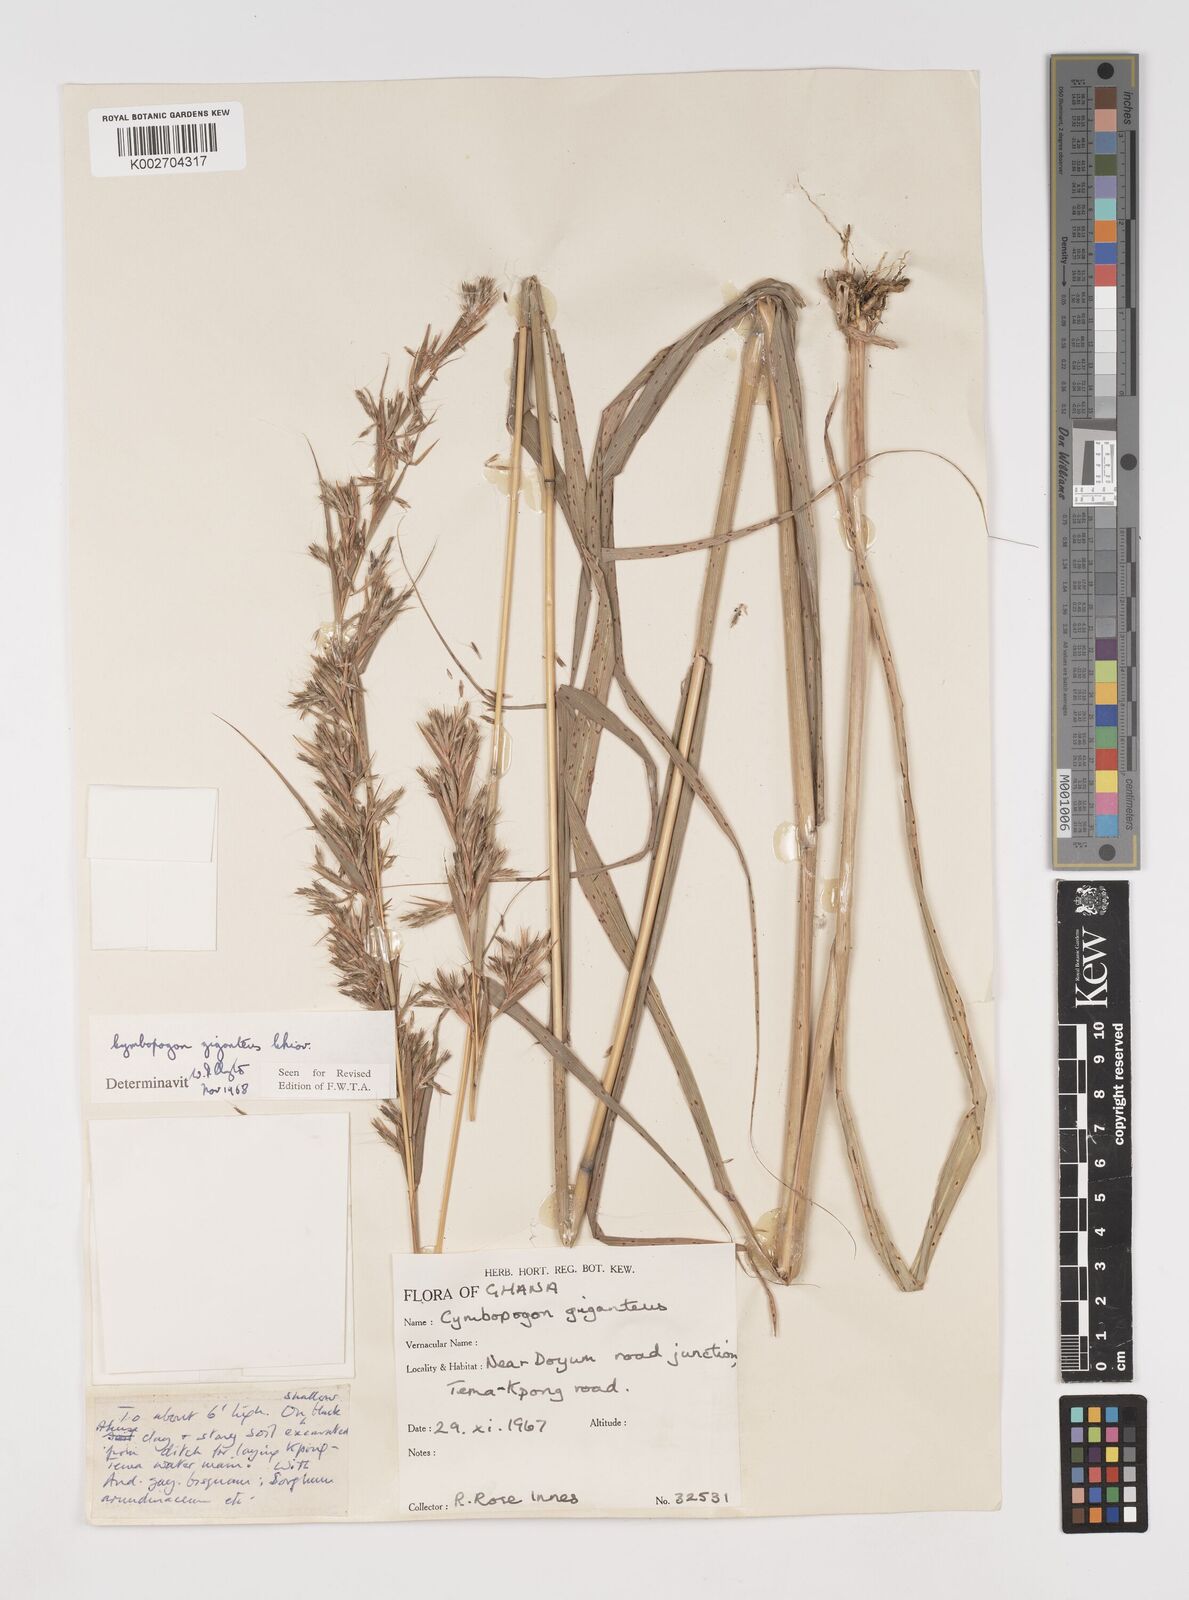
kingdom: Plantae
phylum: Tracheophyta
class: Liliopsida
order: Poales
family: Poaceae
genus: Cymbopogon
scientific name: Cymbopogon giganteus
